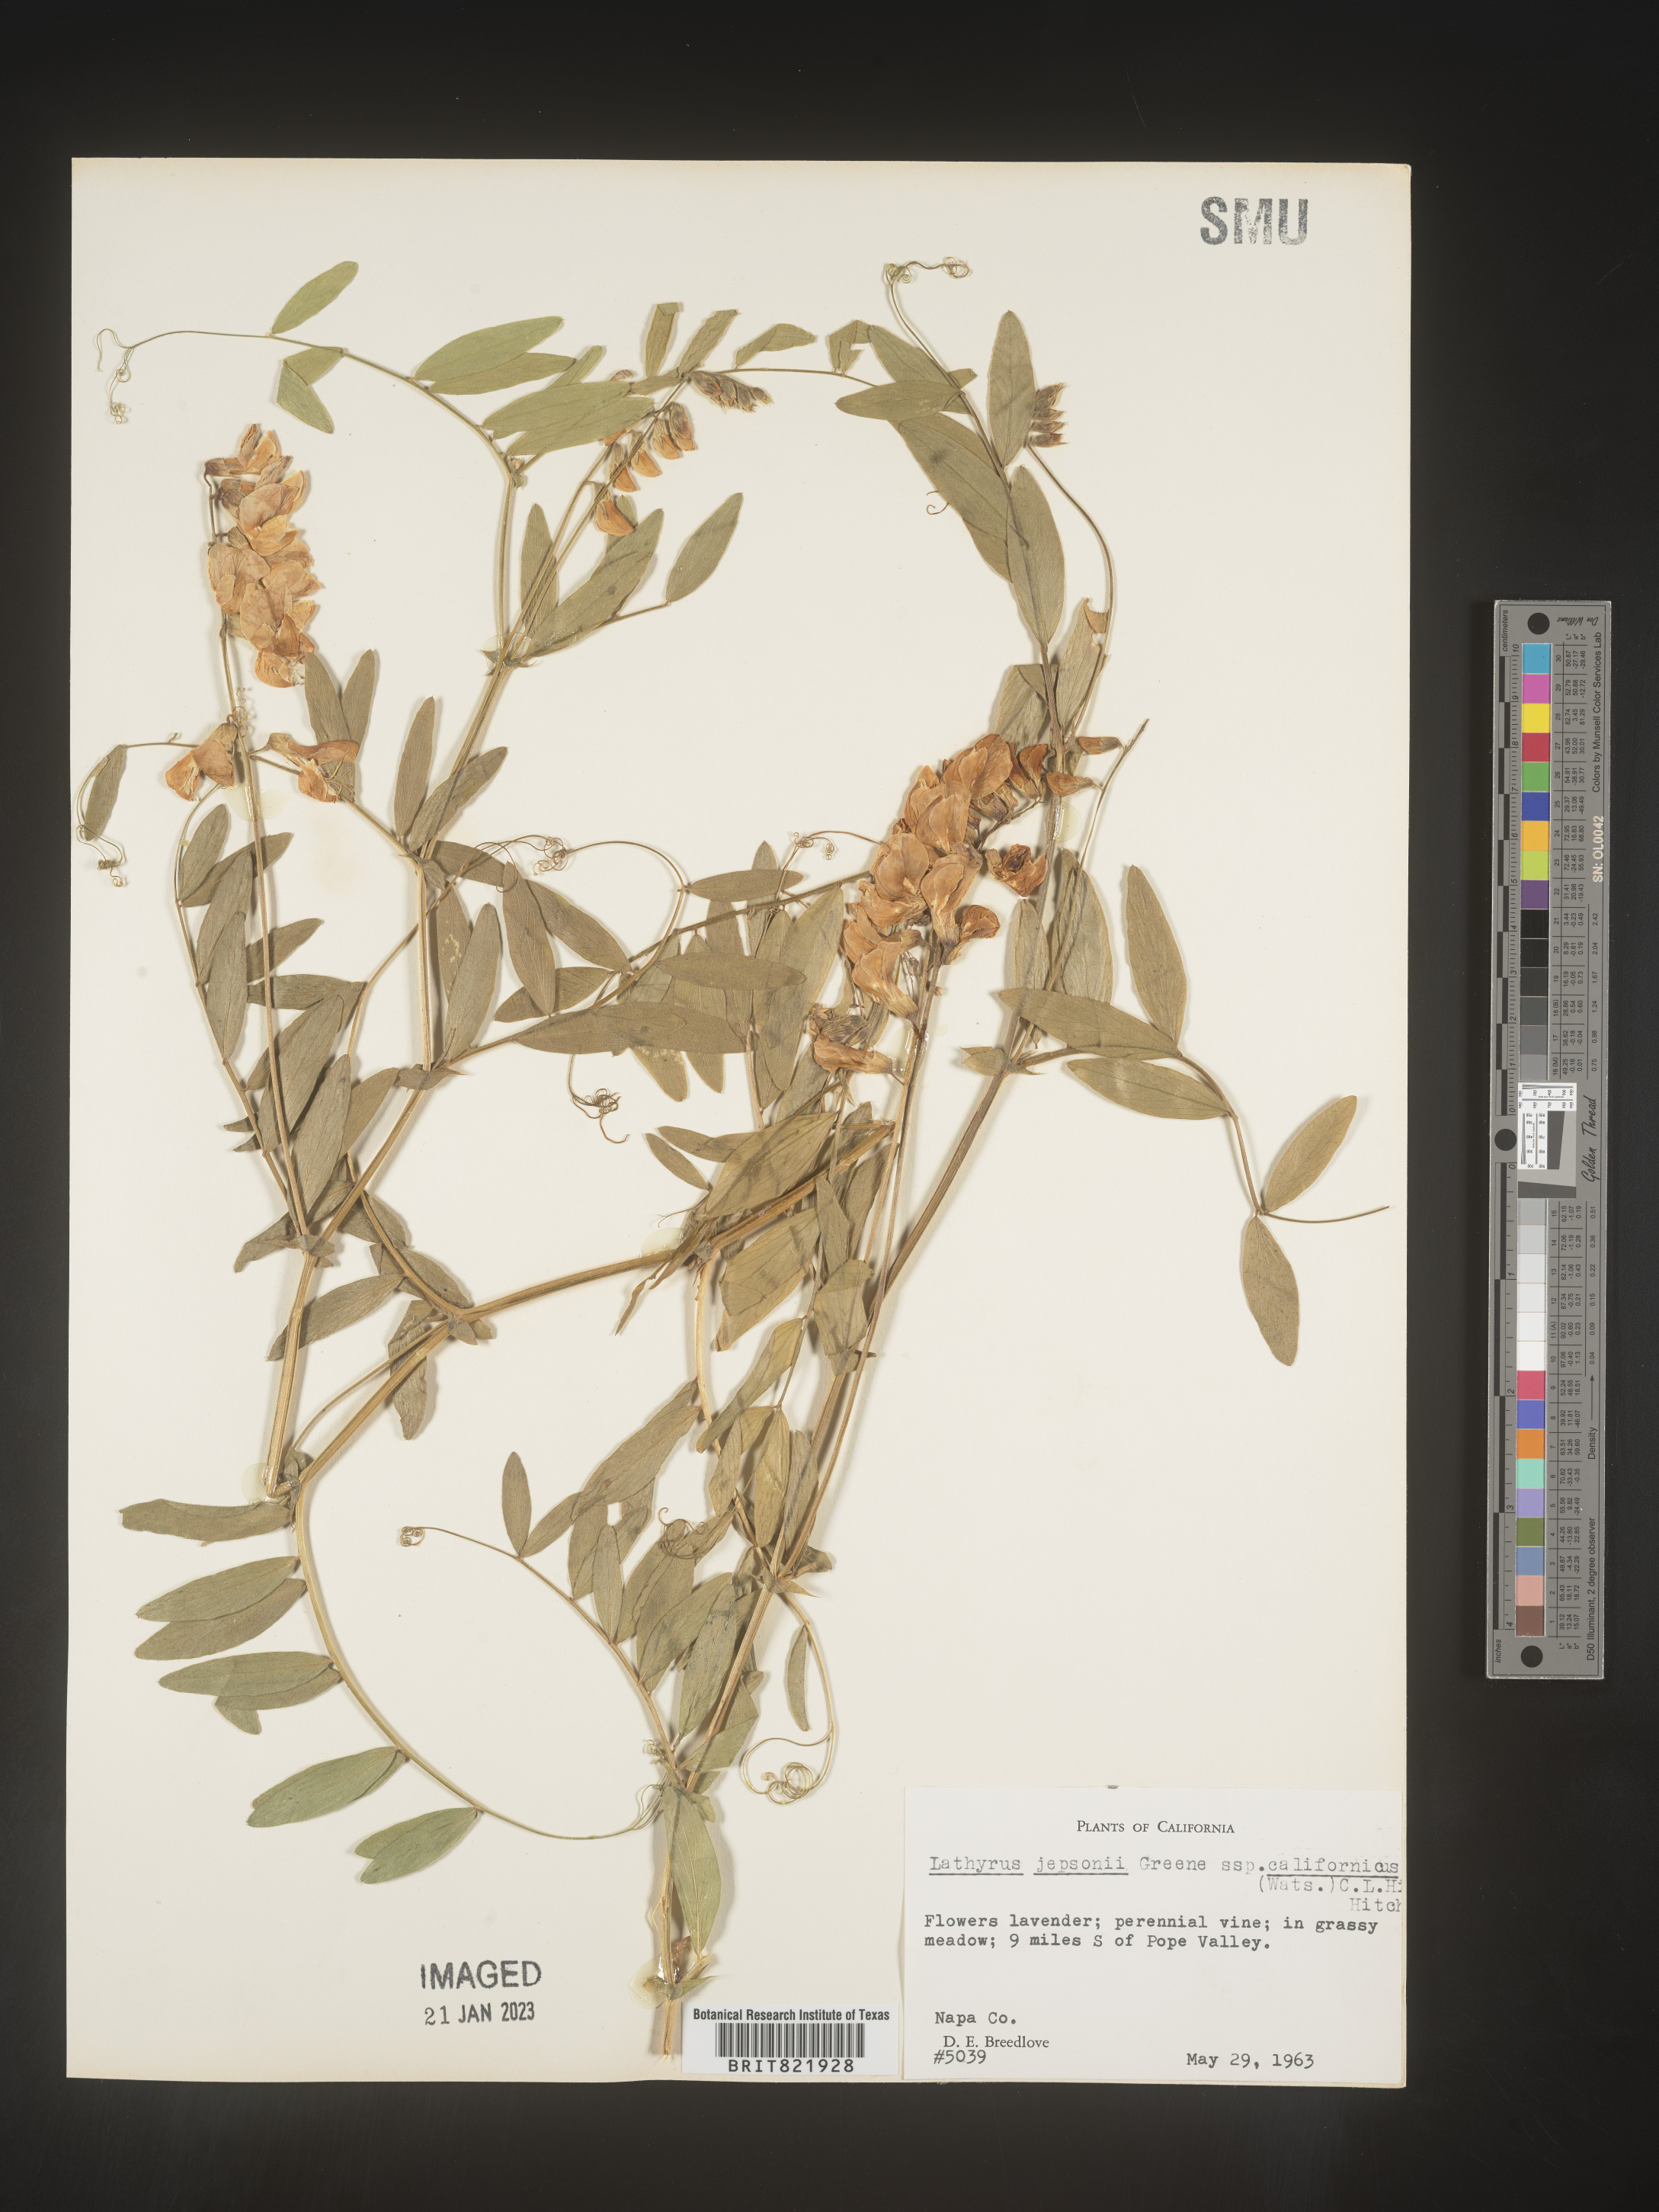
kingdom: Plantae
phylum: Tracheophyta
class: Magnoliopsida
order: Fabales
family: Fabaceae
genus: Lathyrus
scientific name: Lathyrus
